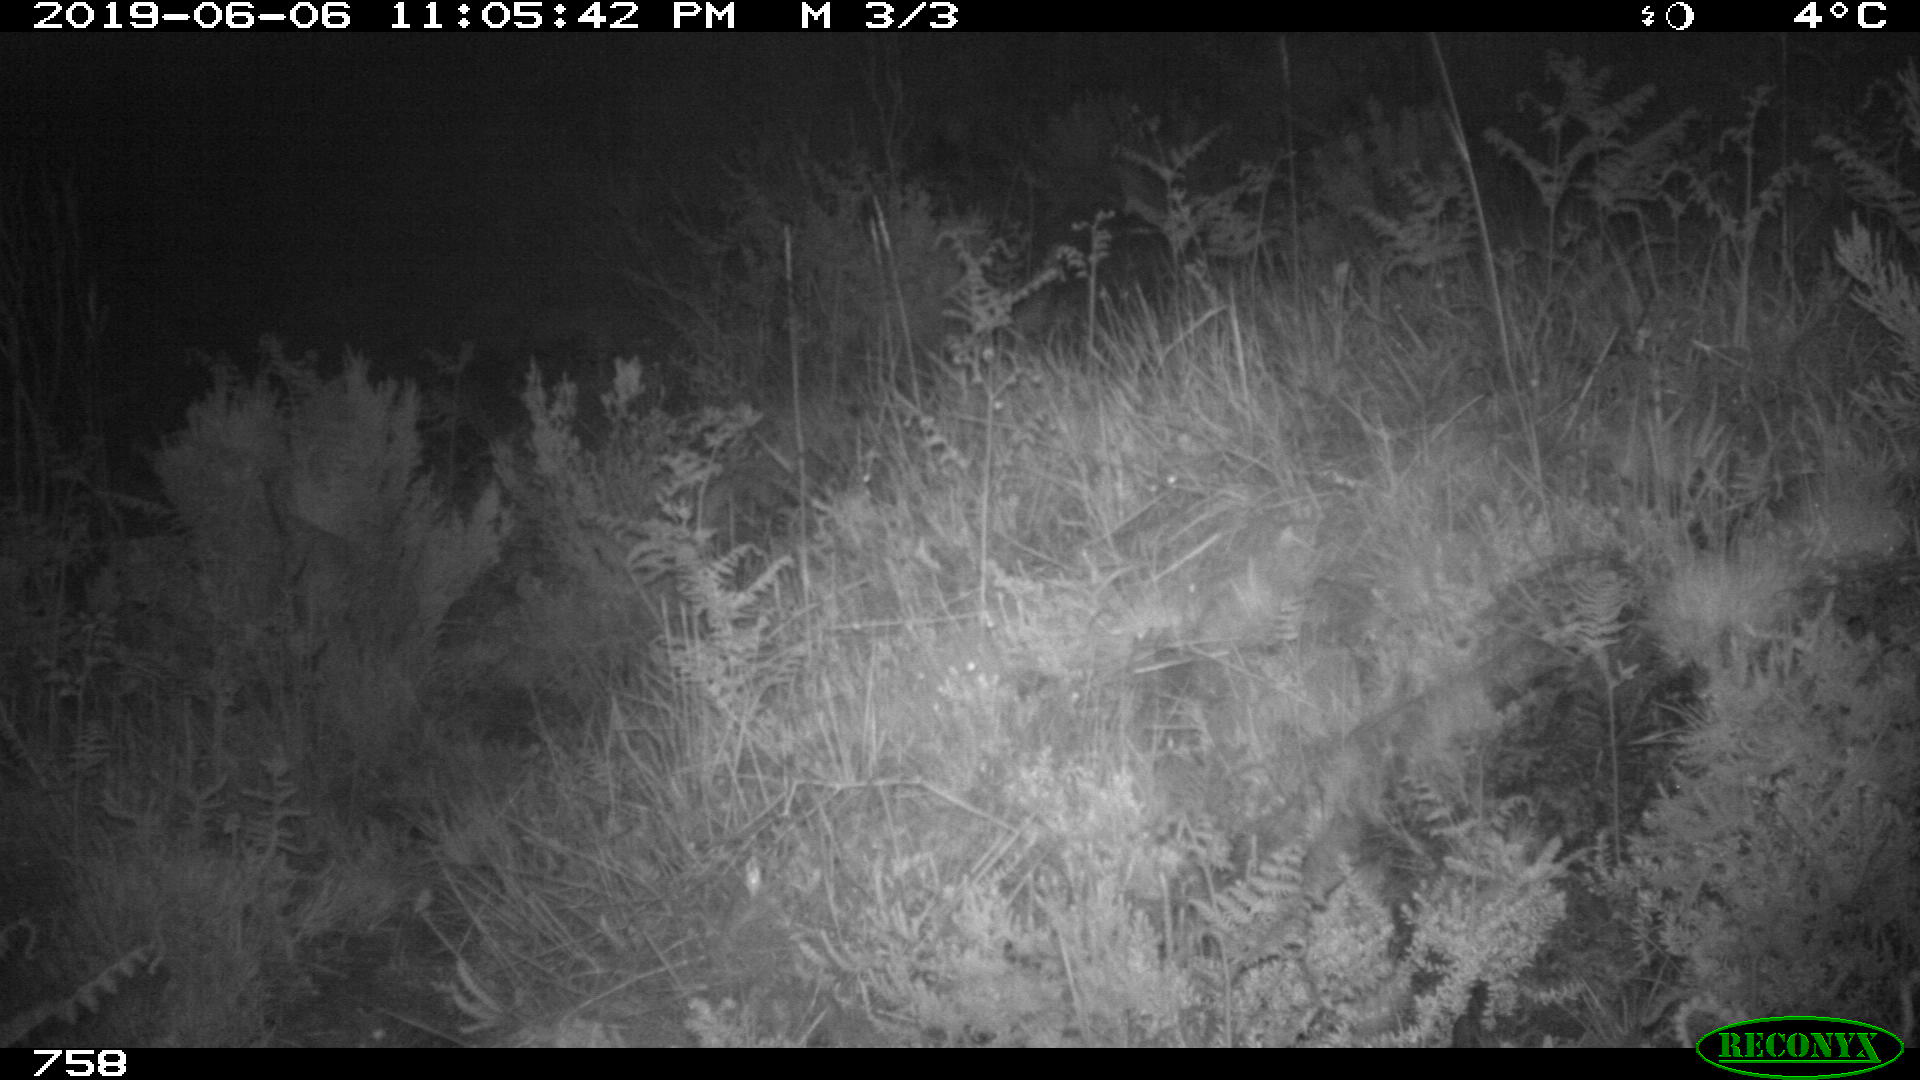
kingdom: Animalia
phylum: Chordata
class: Mammalia
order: Carnivora
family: Canidae
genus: Vulpes
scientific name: Vulpes vulpes
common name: Red fox
